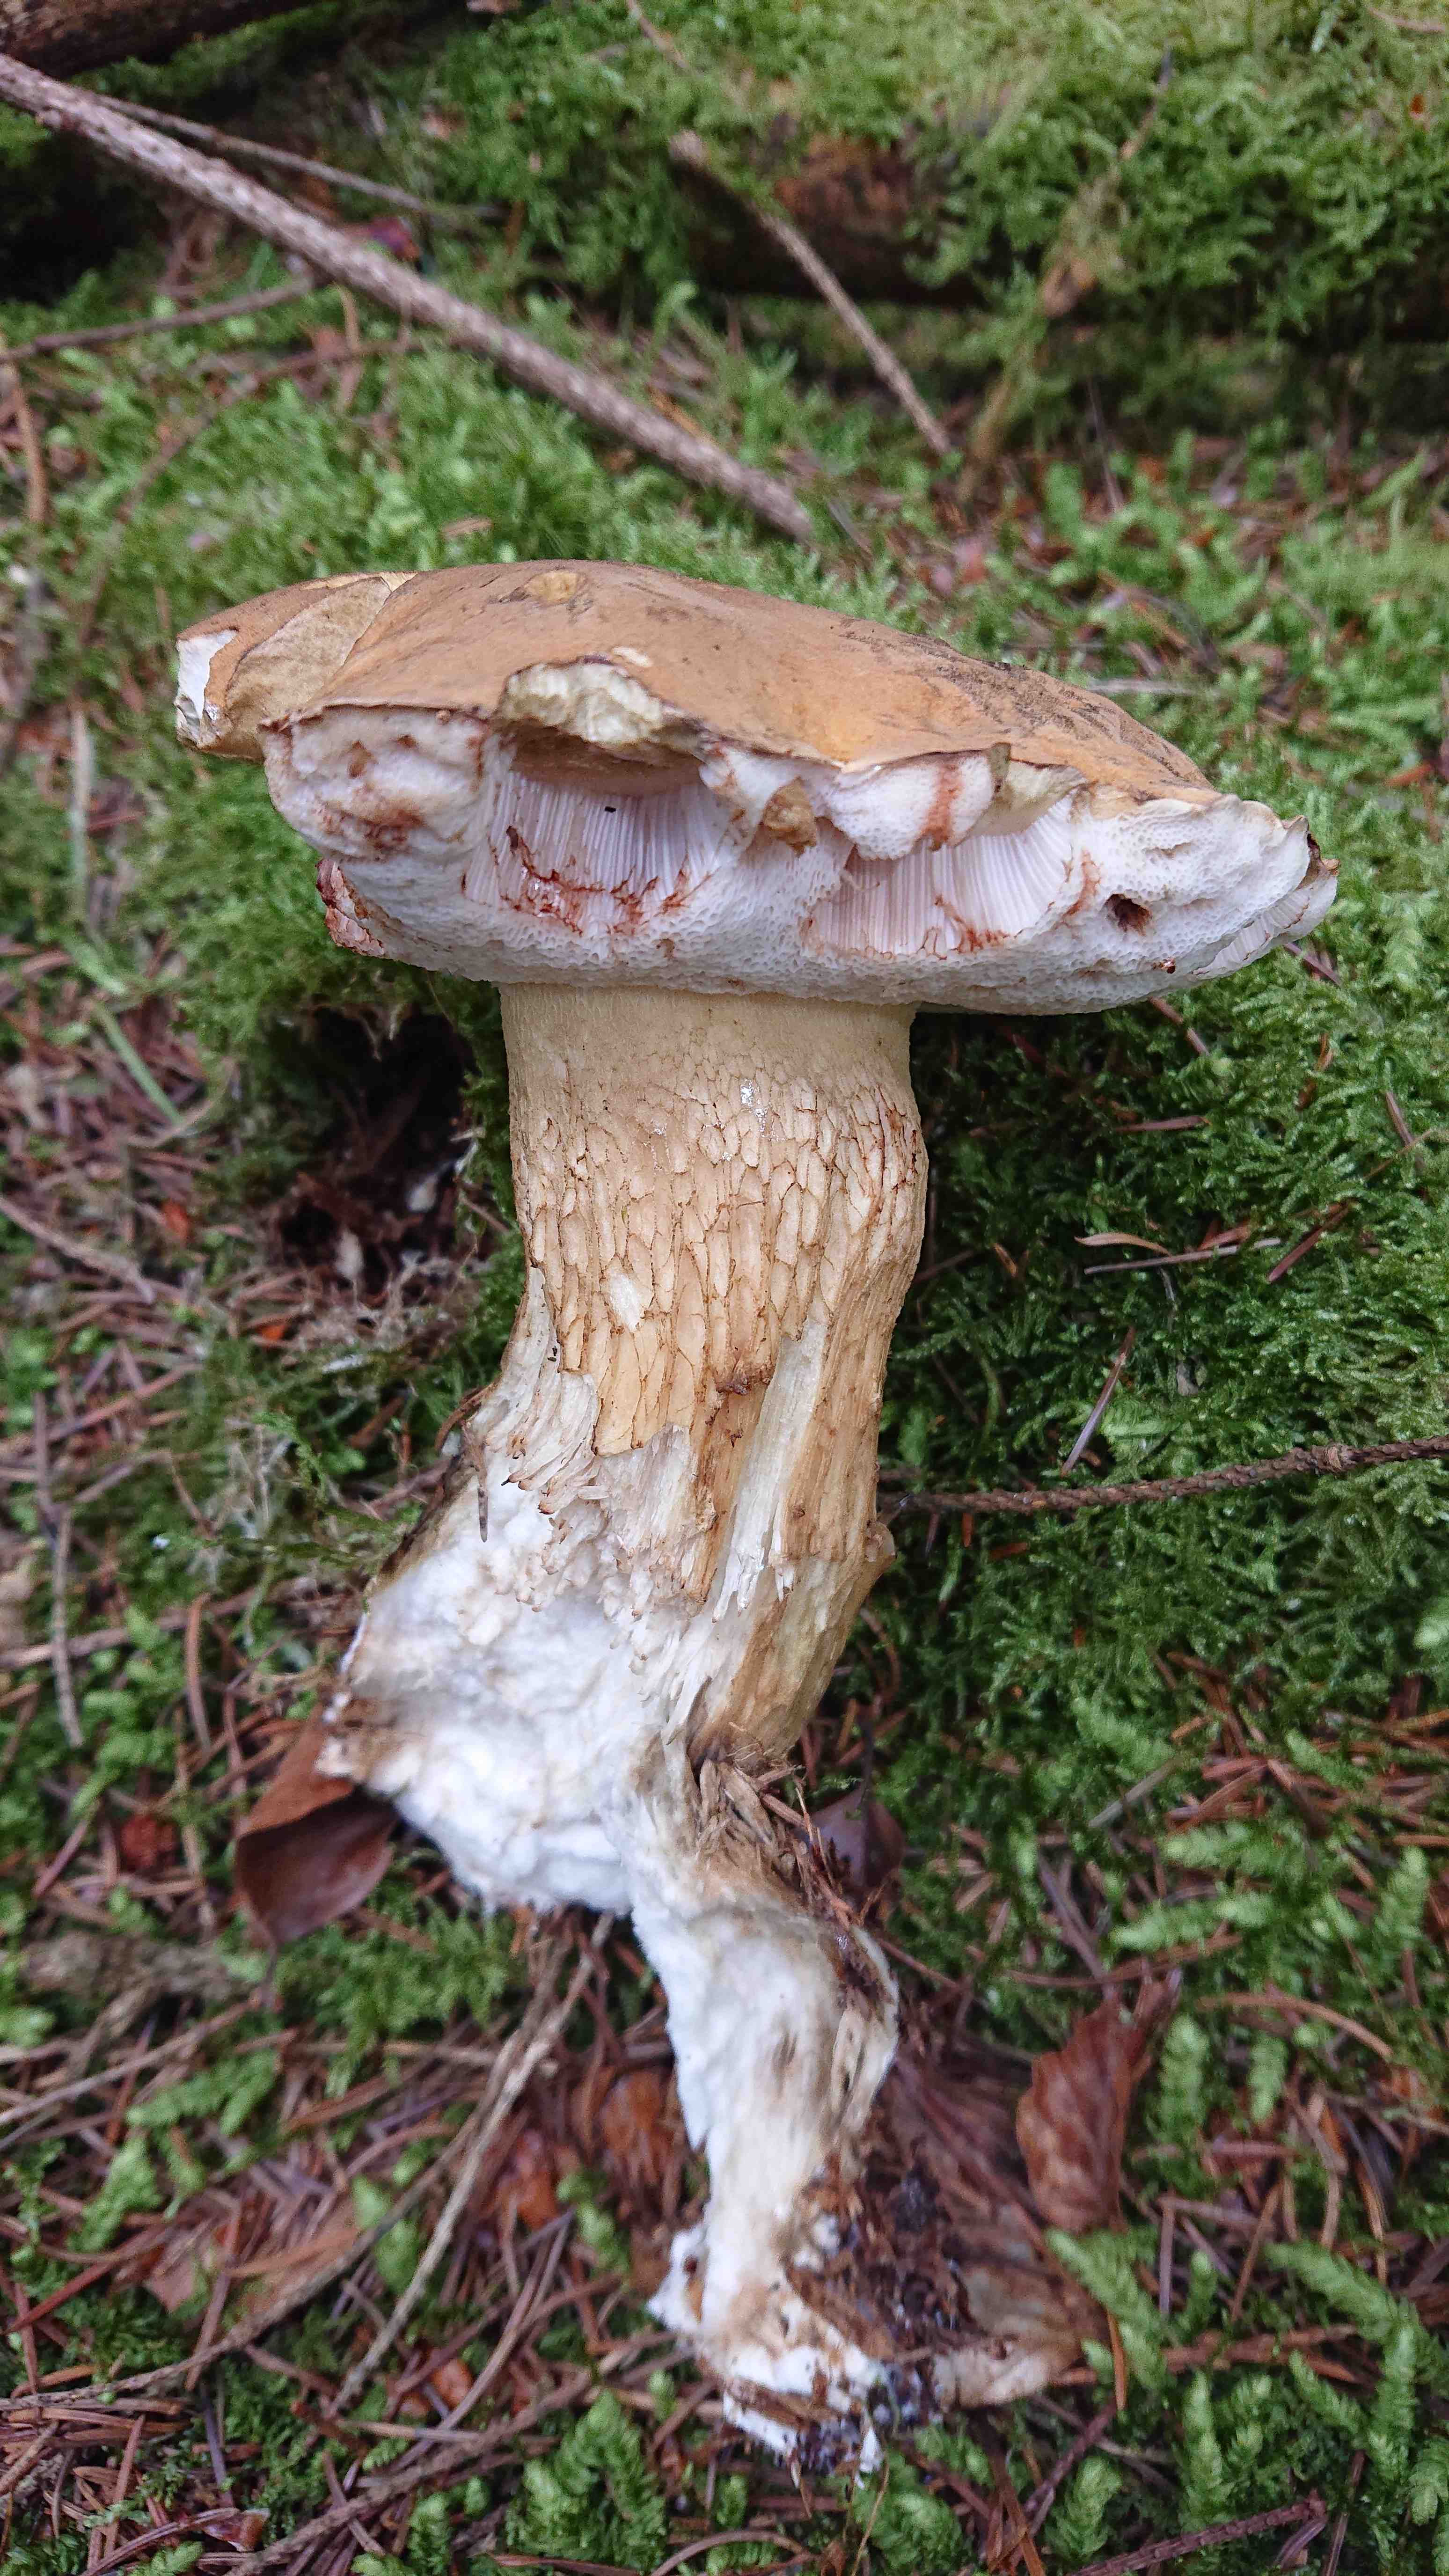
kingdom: Fungi
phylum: Basidiomycota
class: Agaricomycetes
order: Boletales
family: Boletaceae
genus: Tylopilus
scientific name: Tylopilus felleus
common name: galderørhat
